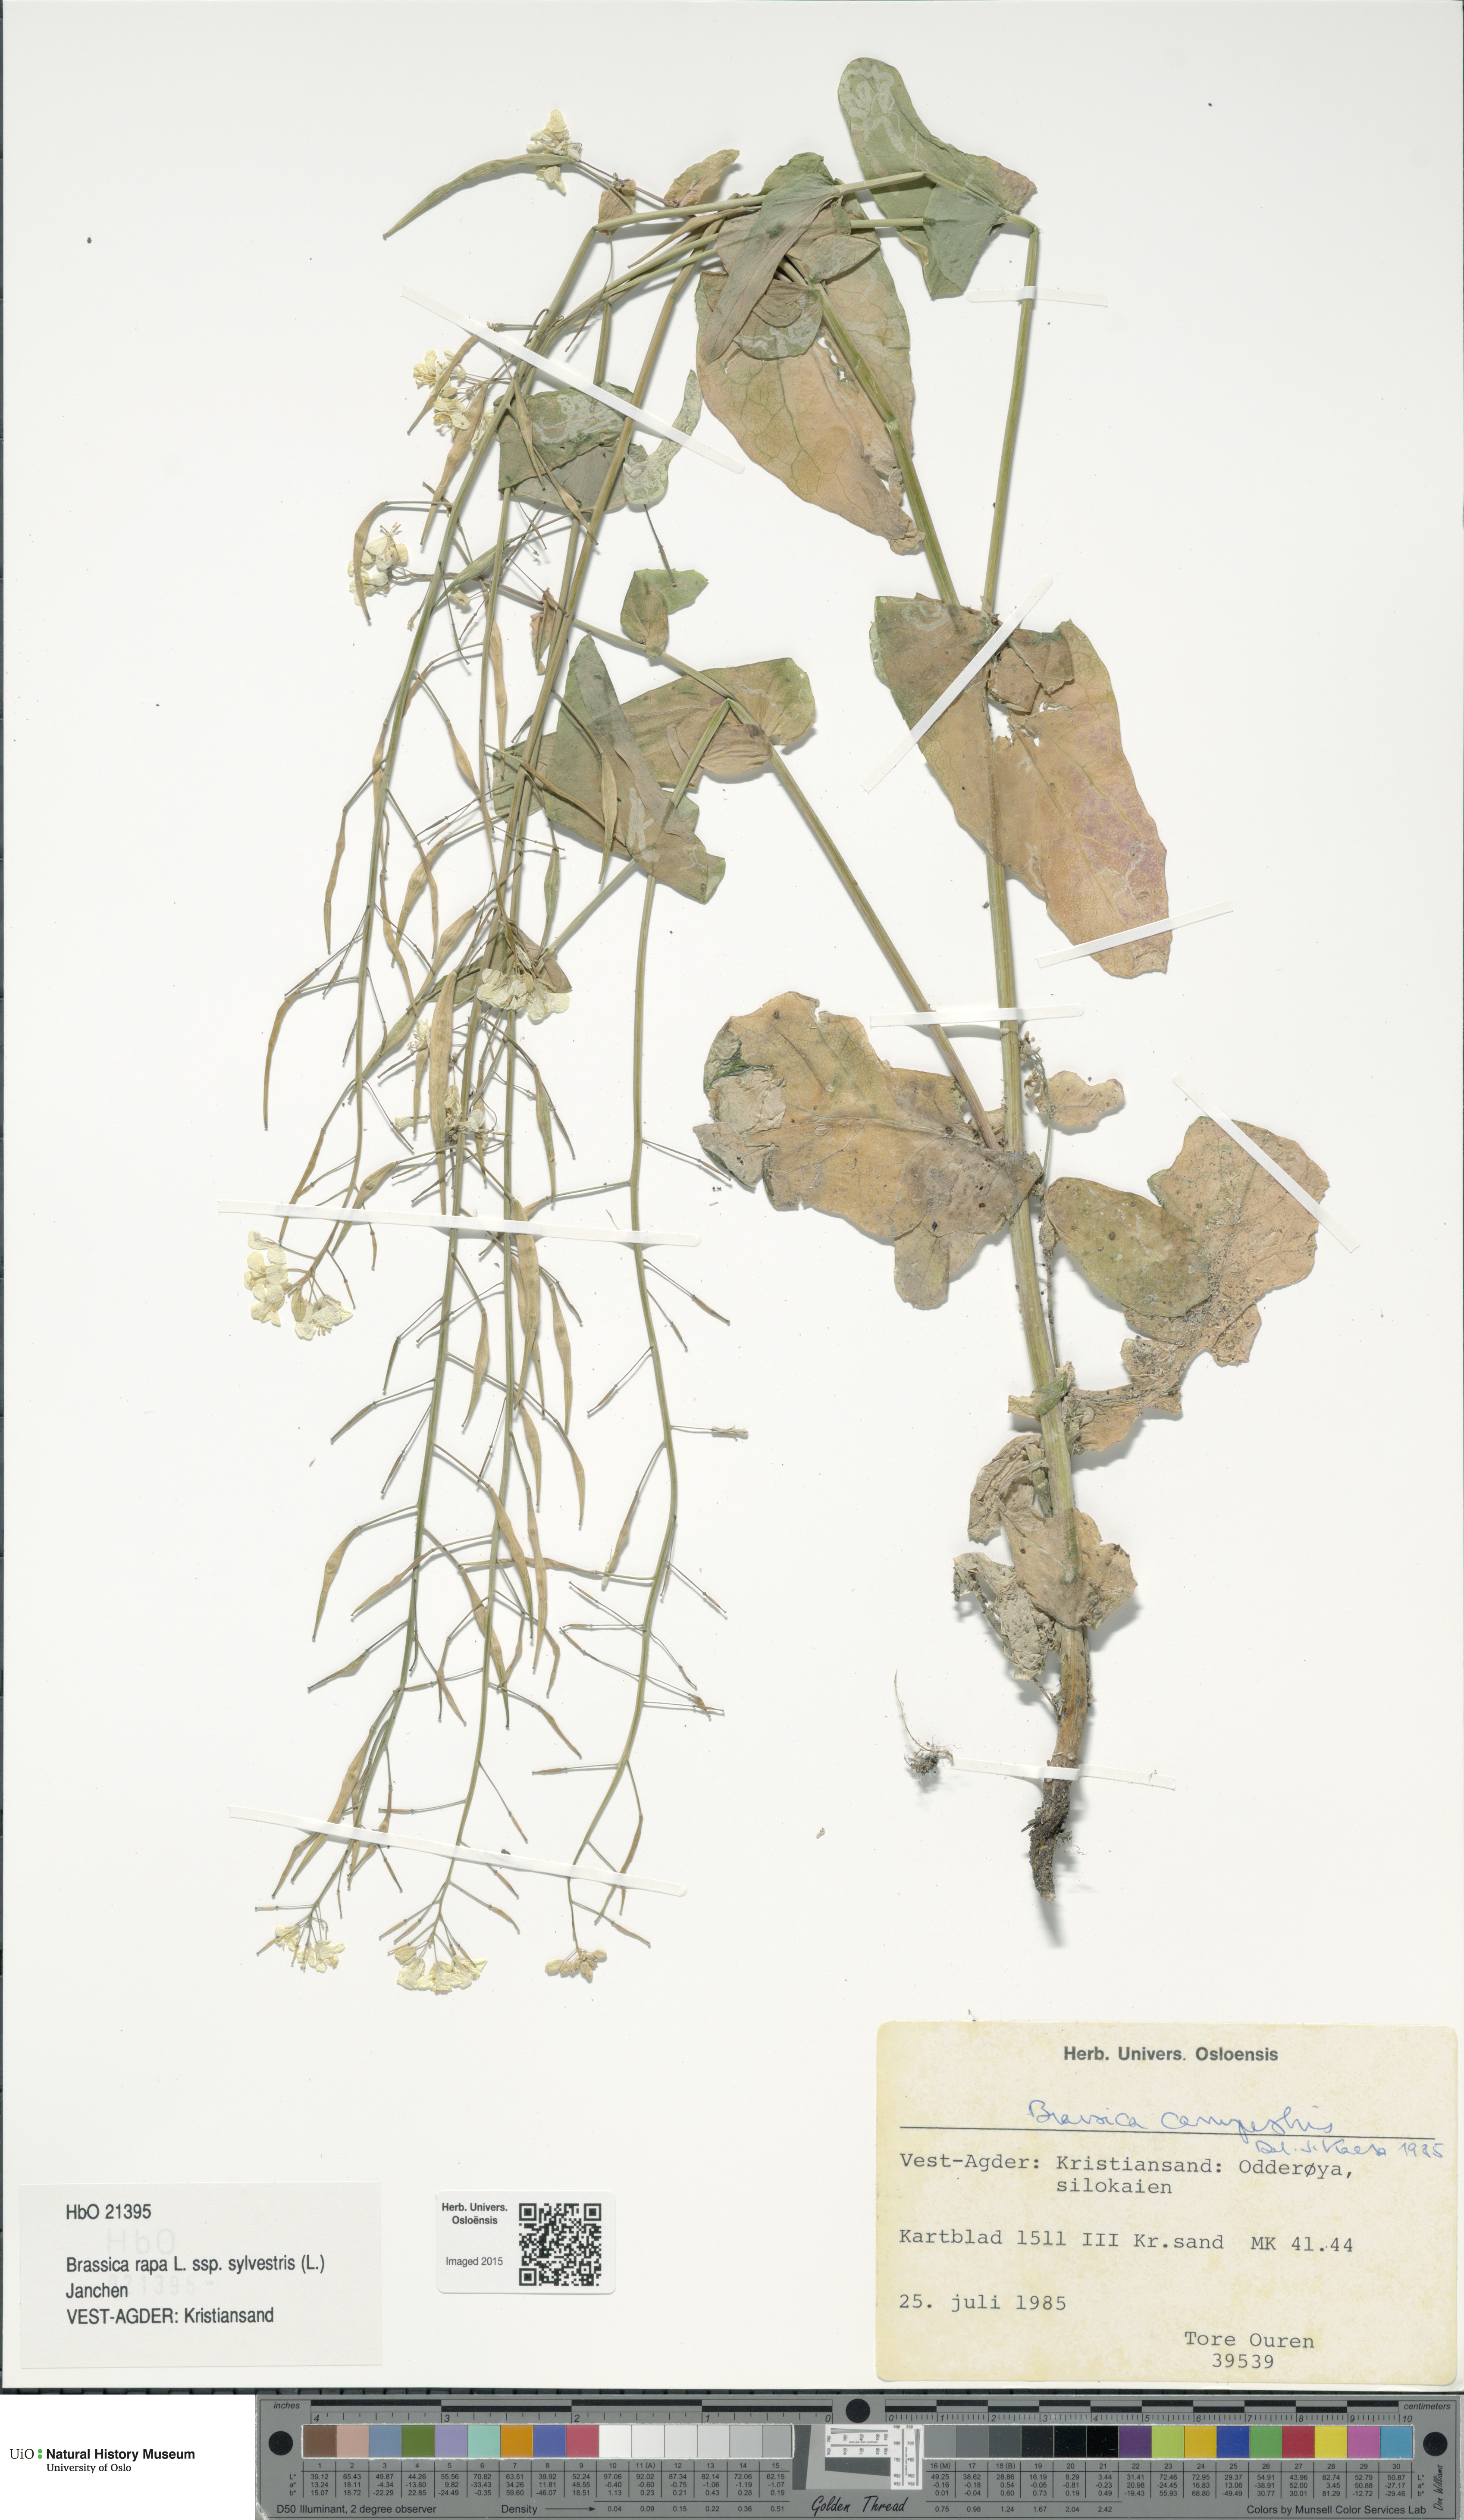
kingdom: Plantae
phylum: Tracheophyta
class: Magnoliopsida
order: Brassicales
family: Brassicaceae
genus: Brassica
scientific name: Brassica rapa
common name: Field mustard
